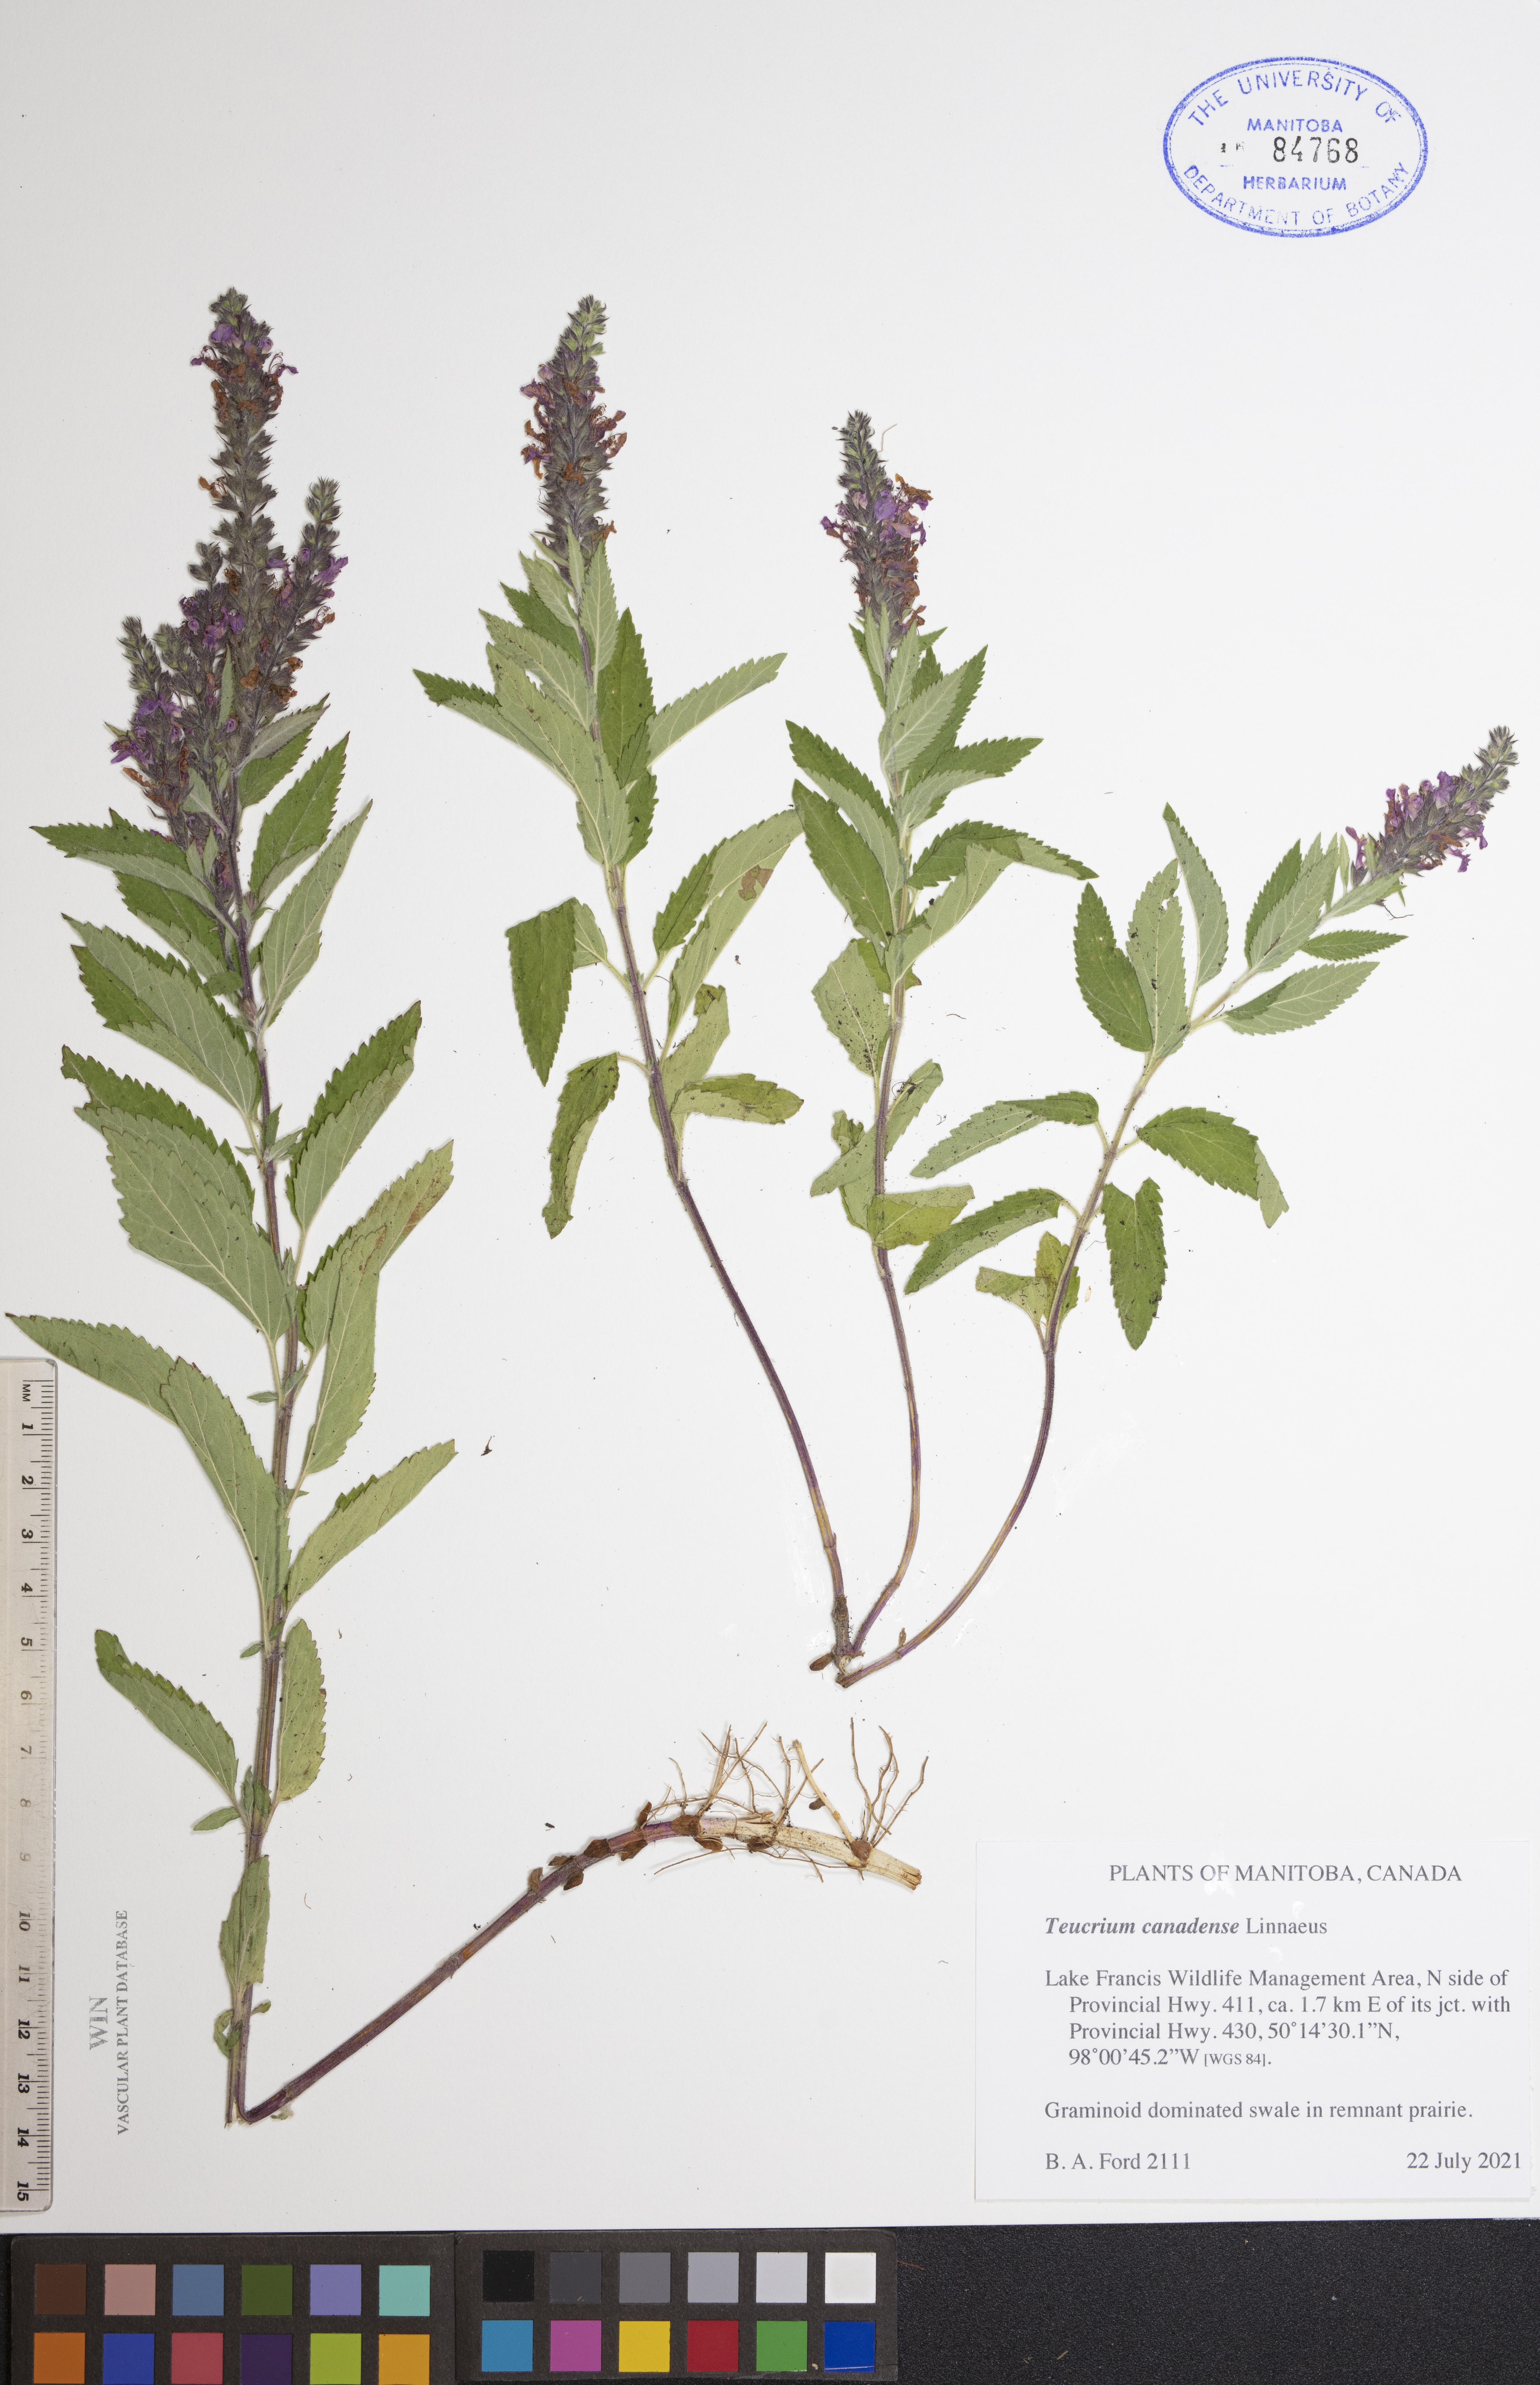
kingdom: Plantae
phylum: Tracheophyta
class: Magnoliopsida
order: Lamiales
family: Lamiaceae
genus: Teucrium
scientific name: Teucrium canadense
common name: American germander
